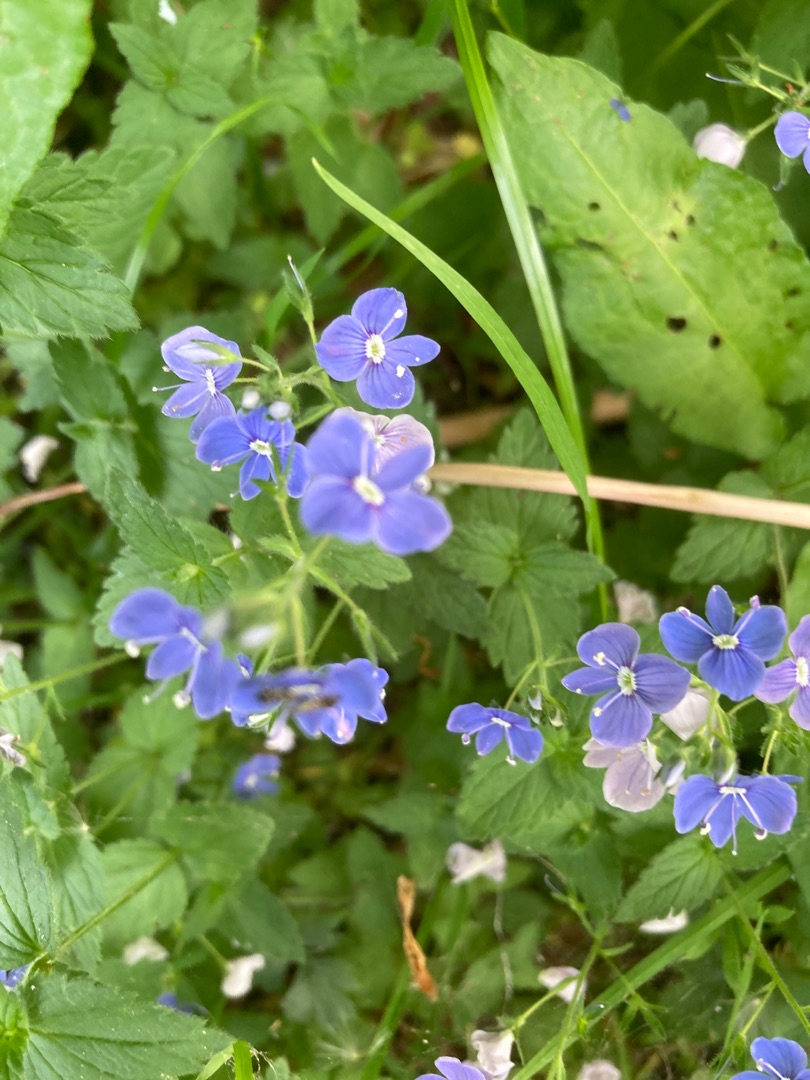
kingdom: Plantae
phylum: Tracheophyta
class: Magnoliopsida
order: Lamiales
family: Plantaginaceae
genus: Veronica
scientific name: Veronica chamaedrys
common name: Tveskægget ærenpris
